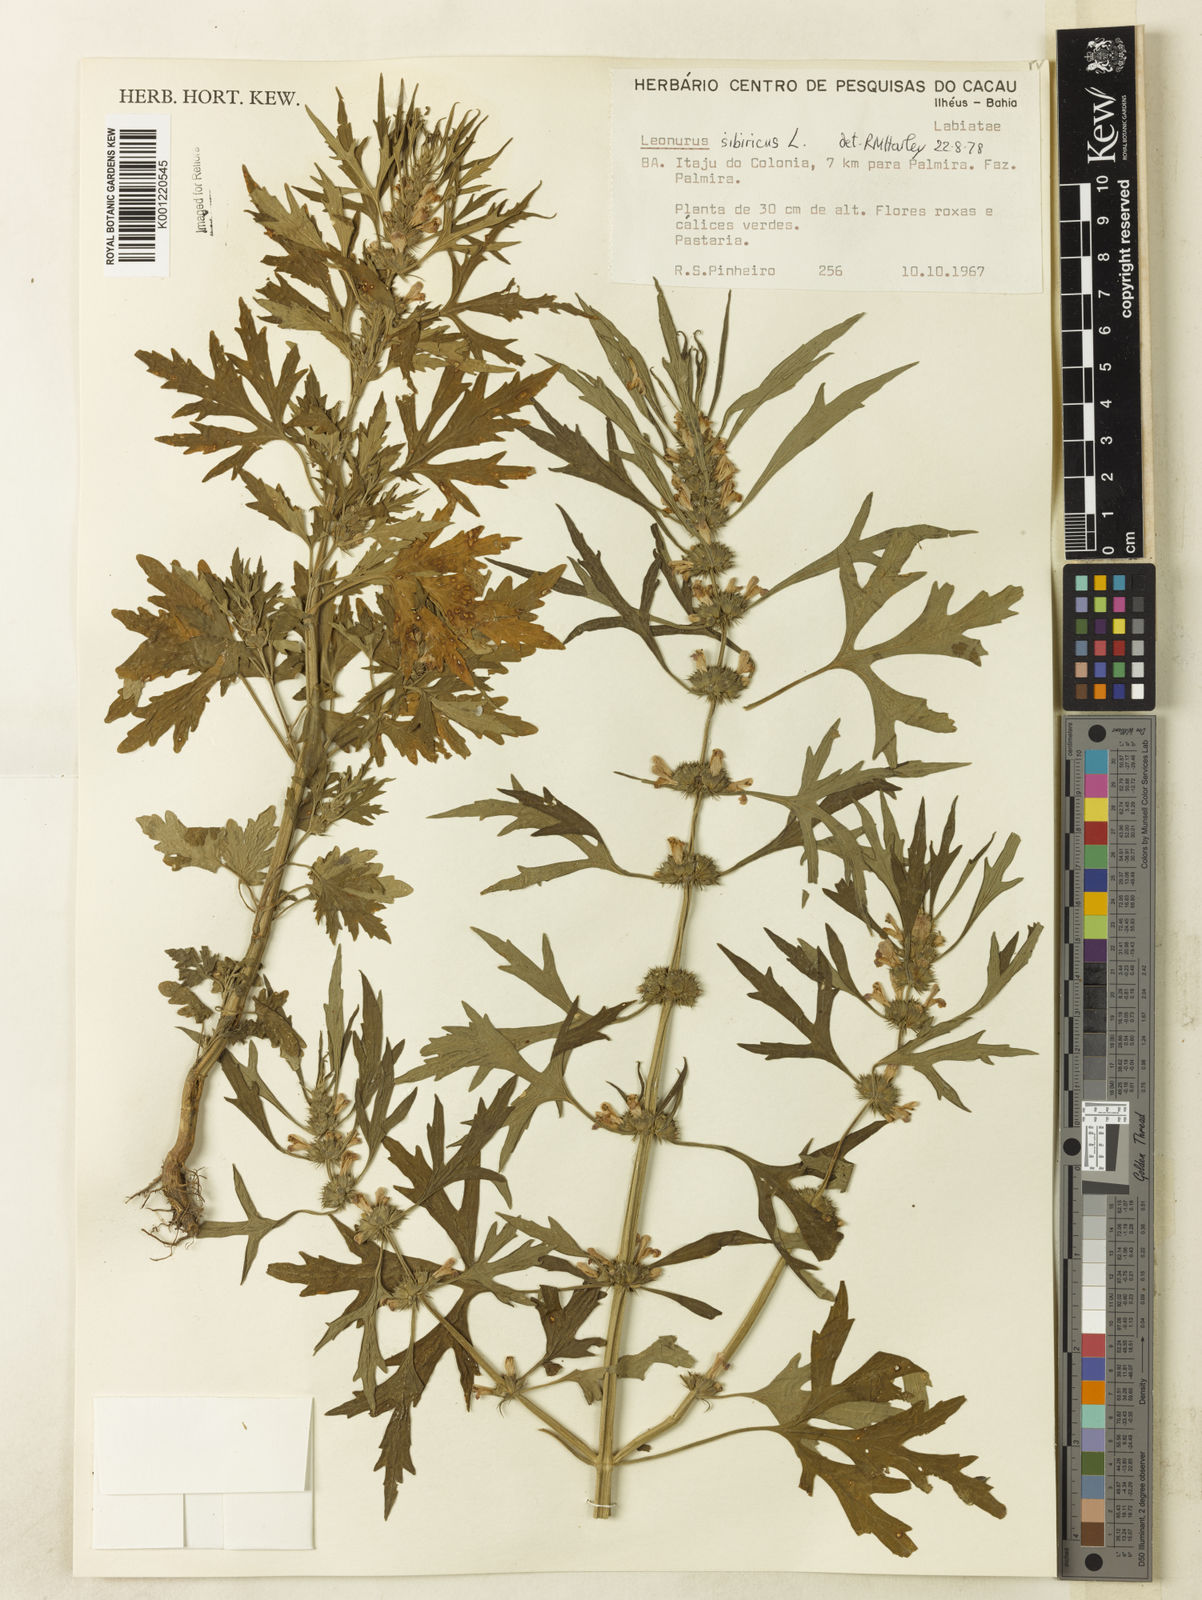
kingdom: Plantae
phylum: Tracheophyta
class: Magnoliopsida
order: Lamiales
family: Lamiaceae
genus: Leonurus
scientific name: Leonurus japonicus
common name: Honeyweed
